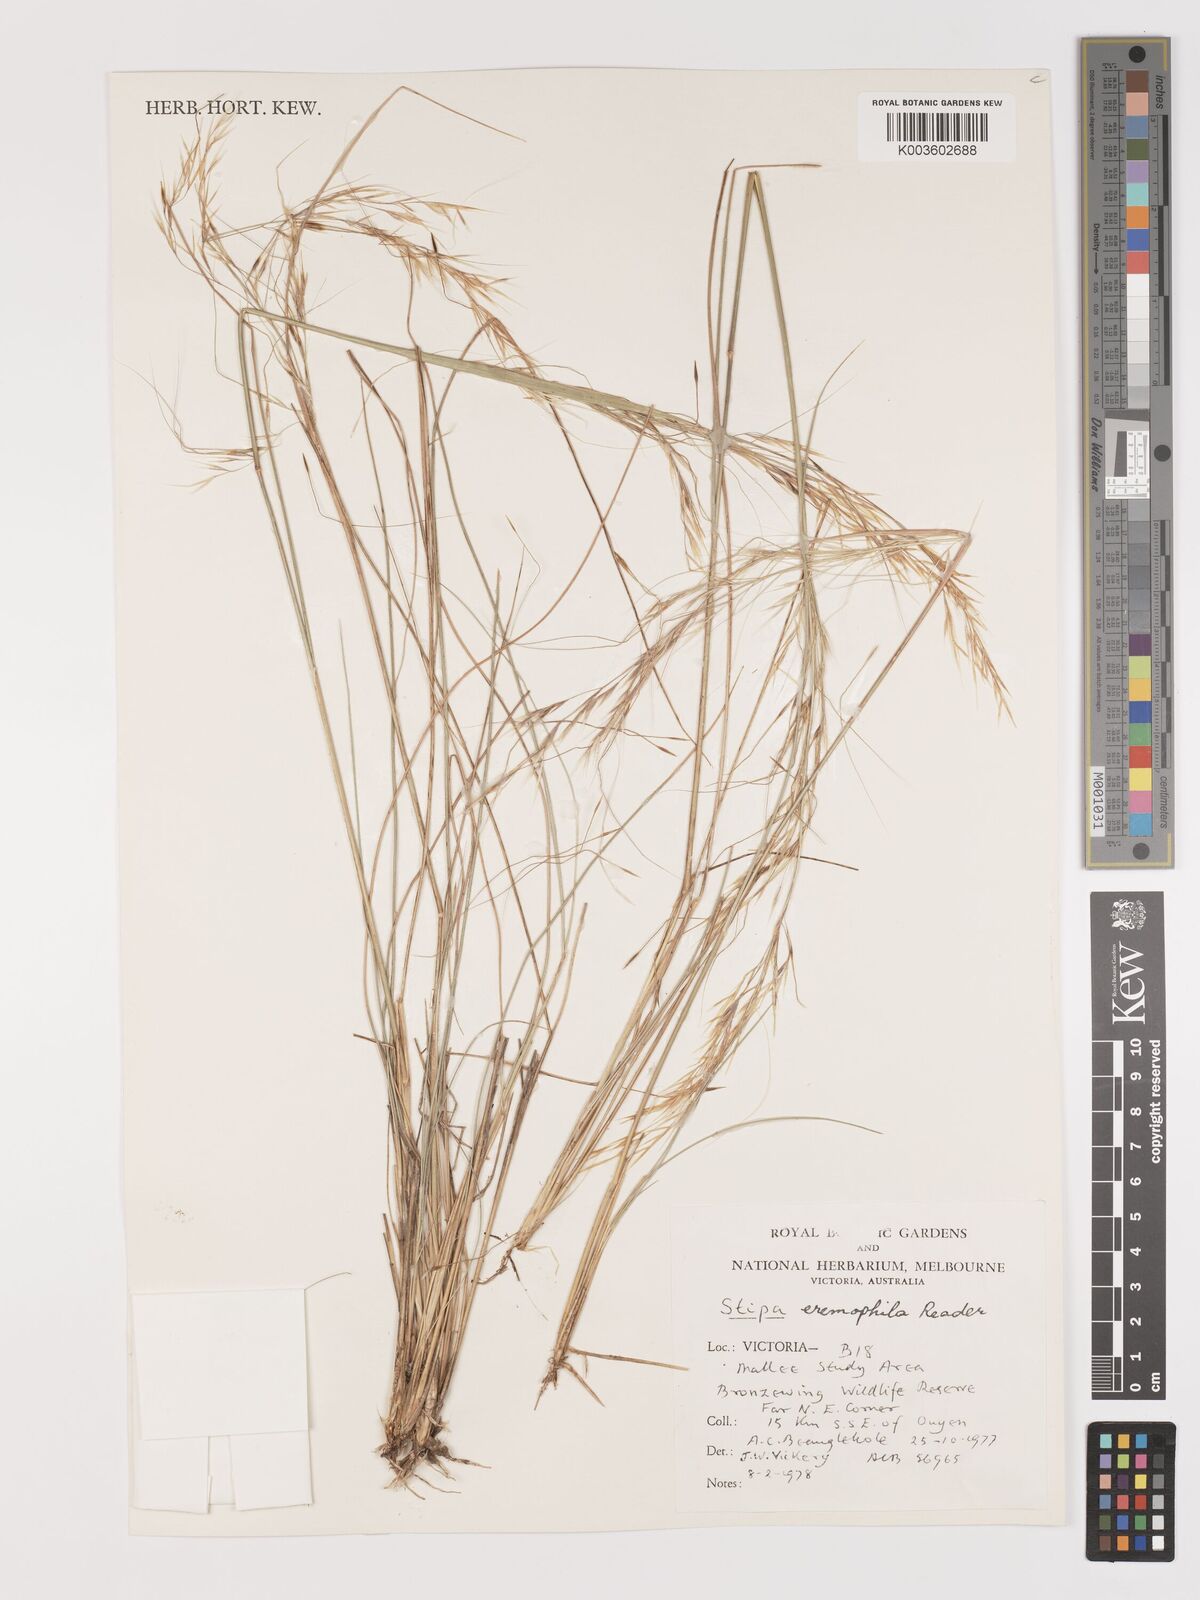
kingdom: Plantae
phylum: Tracheophyta
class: Liliopsida
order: Poales
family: Poaceae
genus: Austrostipa
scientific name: Austrostipa eremophila
